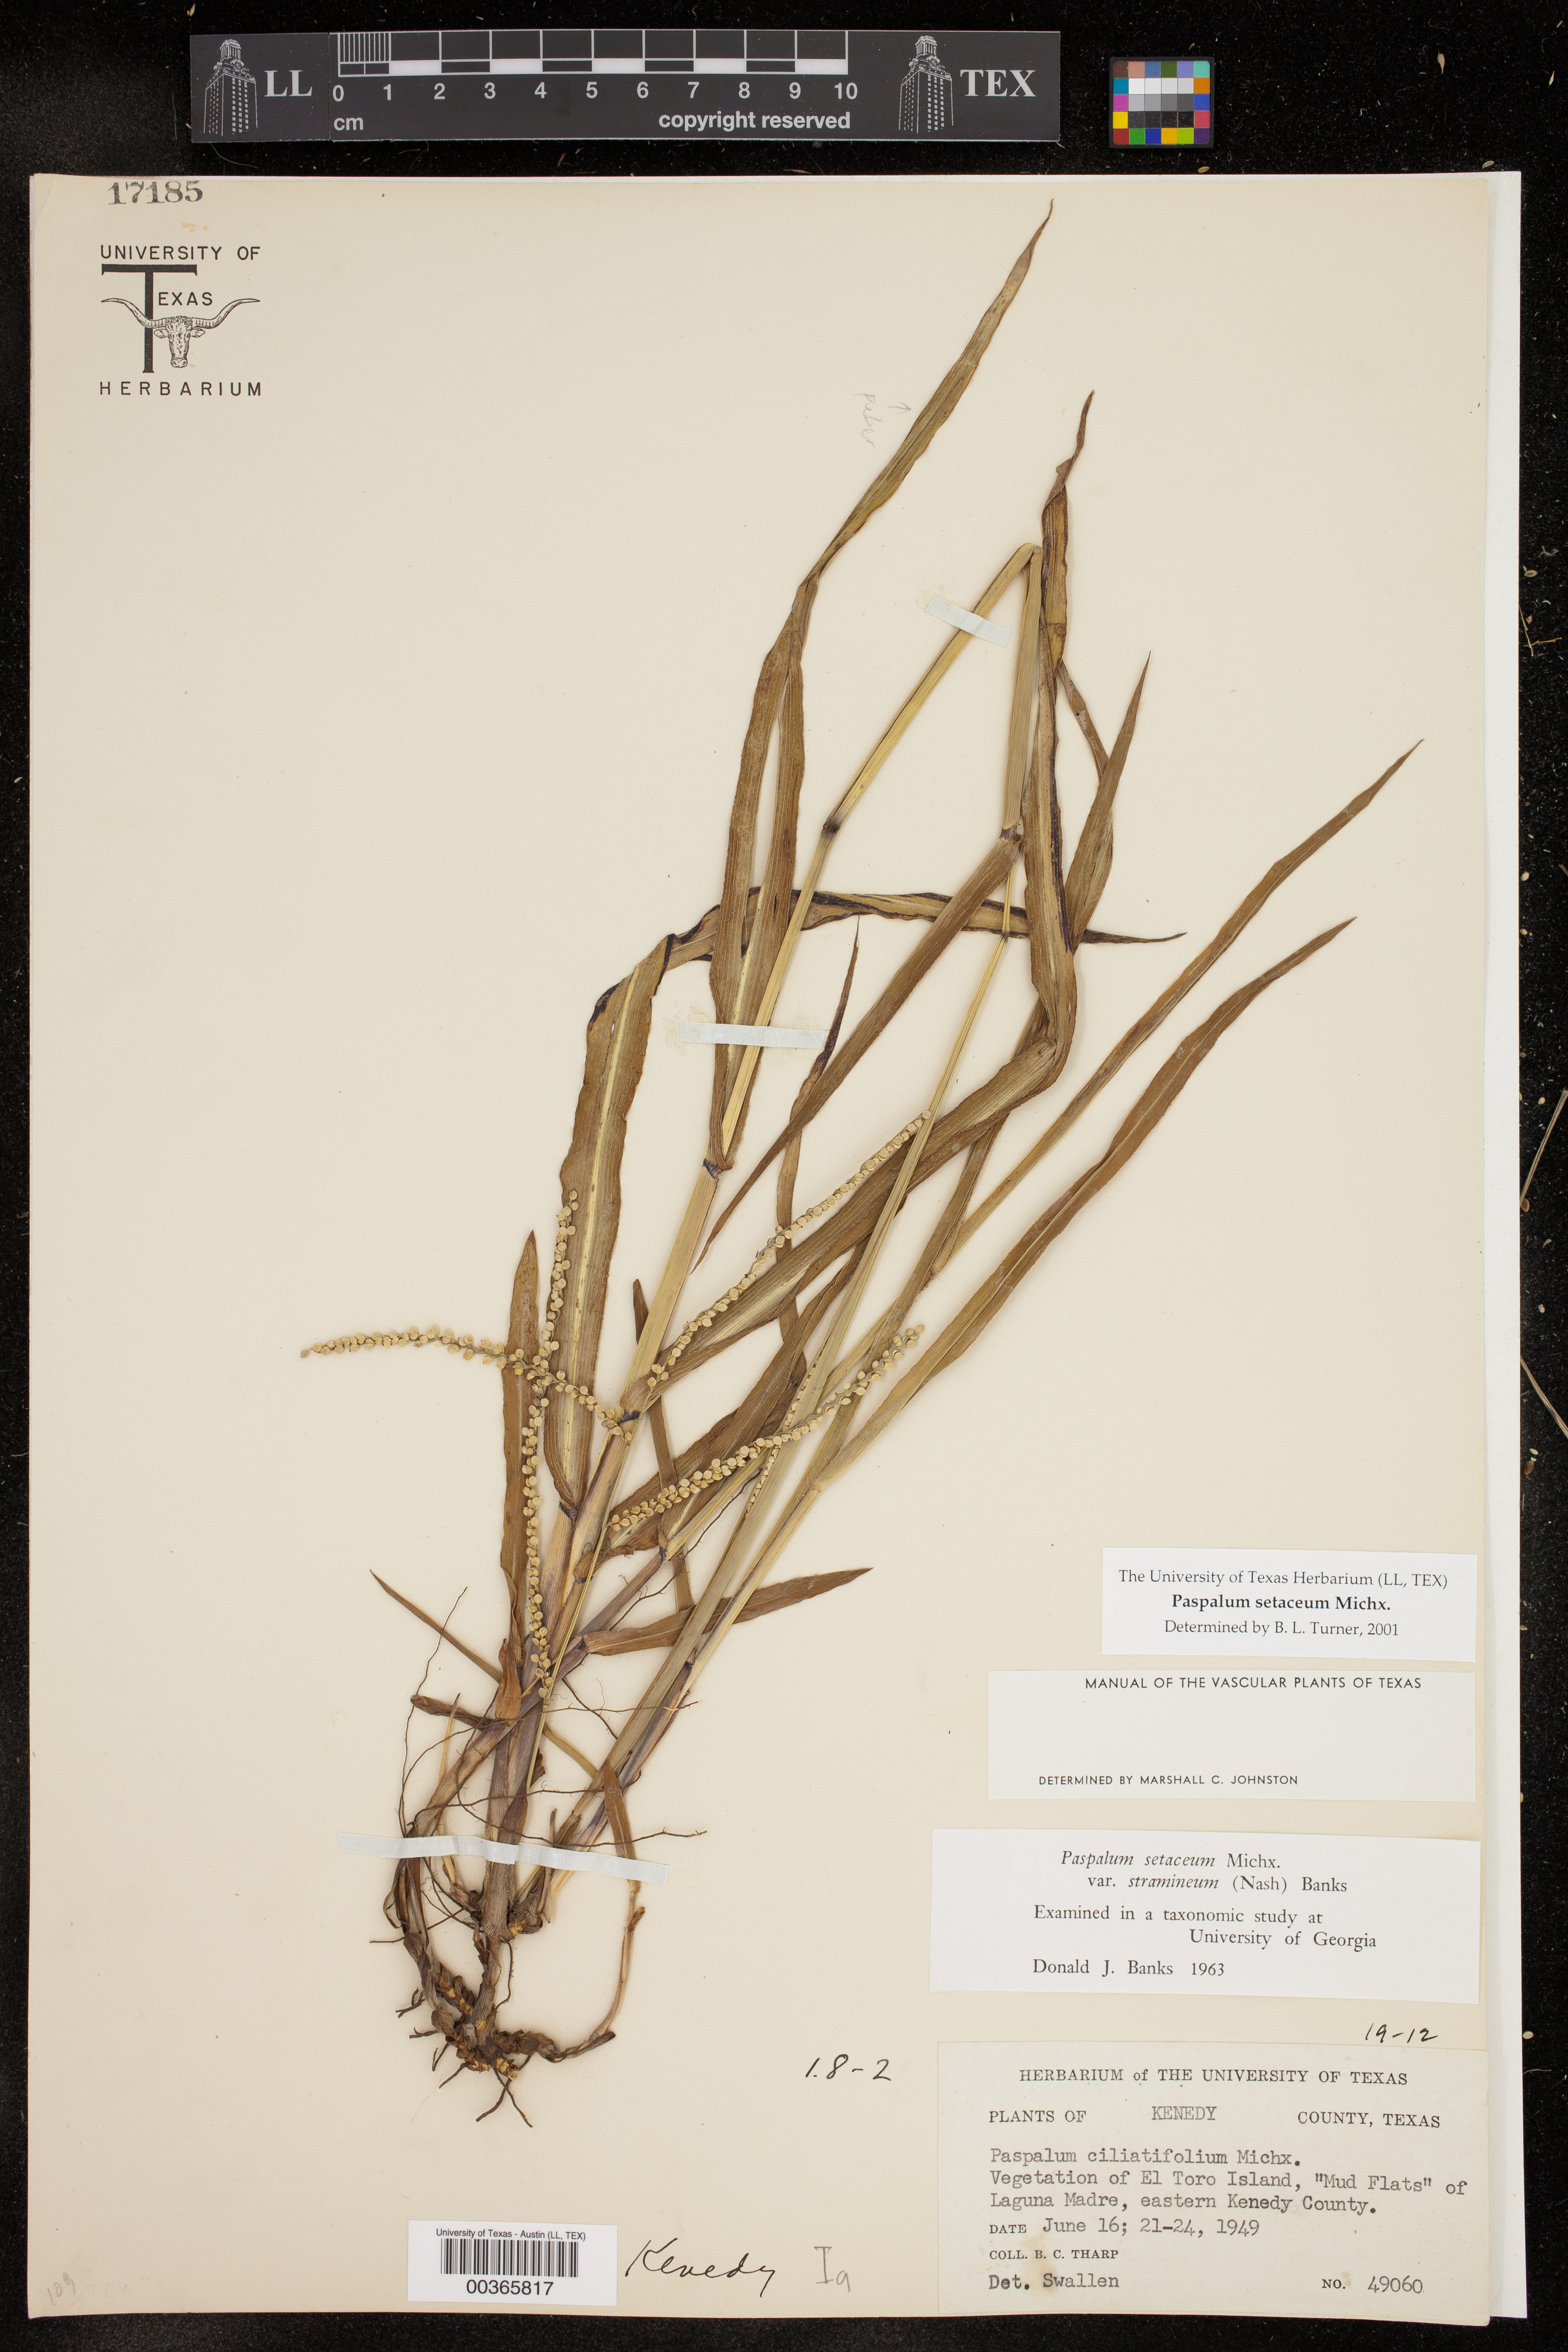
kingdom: Plantae
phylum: Tracheophyta
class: Liliopsida
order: Poales
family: Poaceae
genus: Paspalum
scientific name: Paspalum setaceum
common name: Slender paspalum
